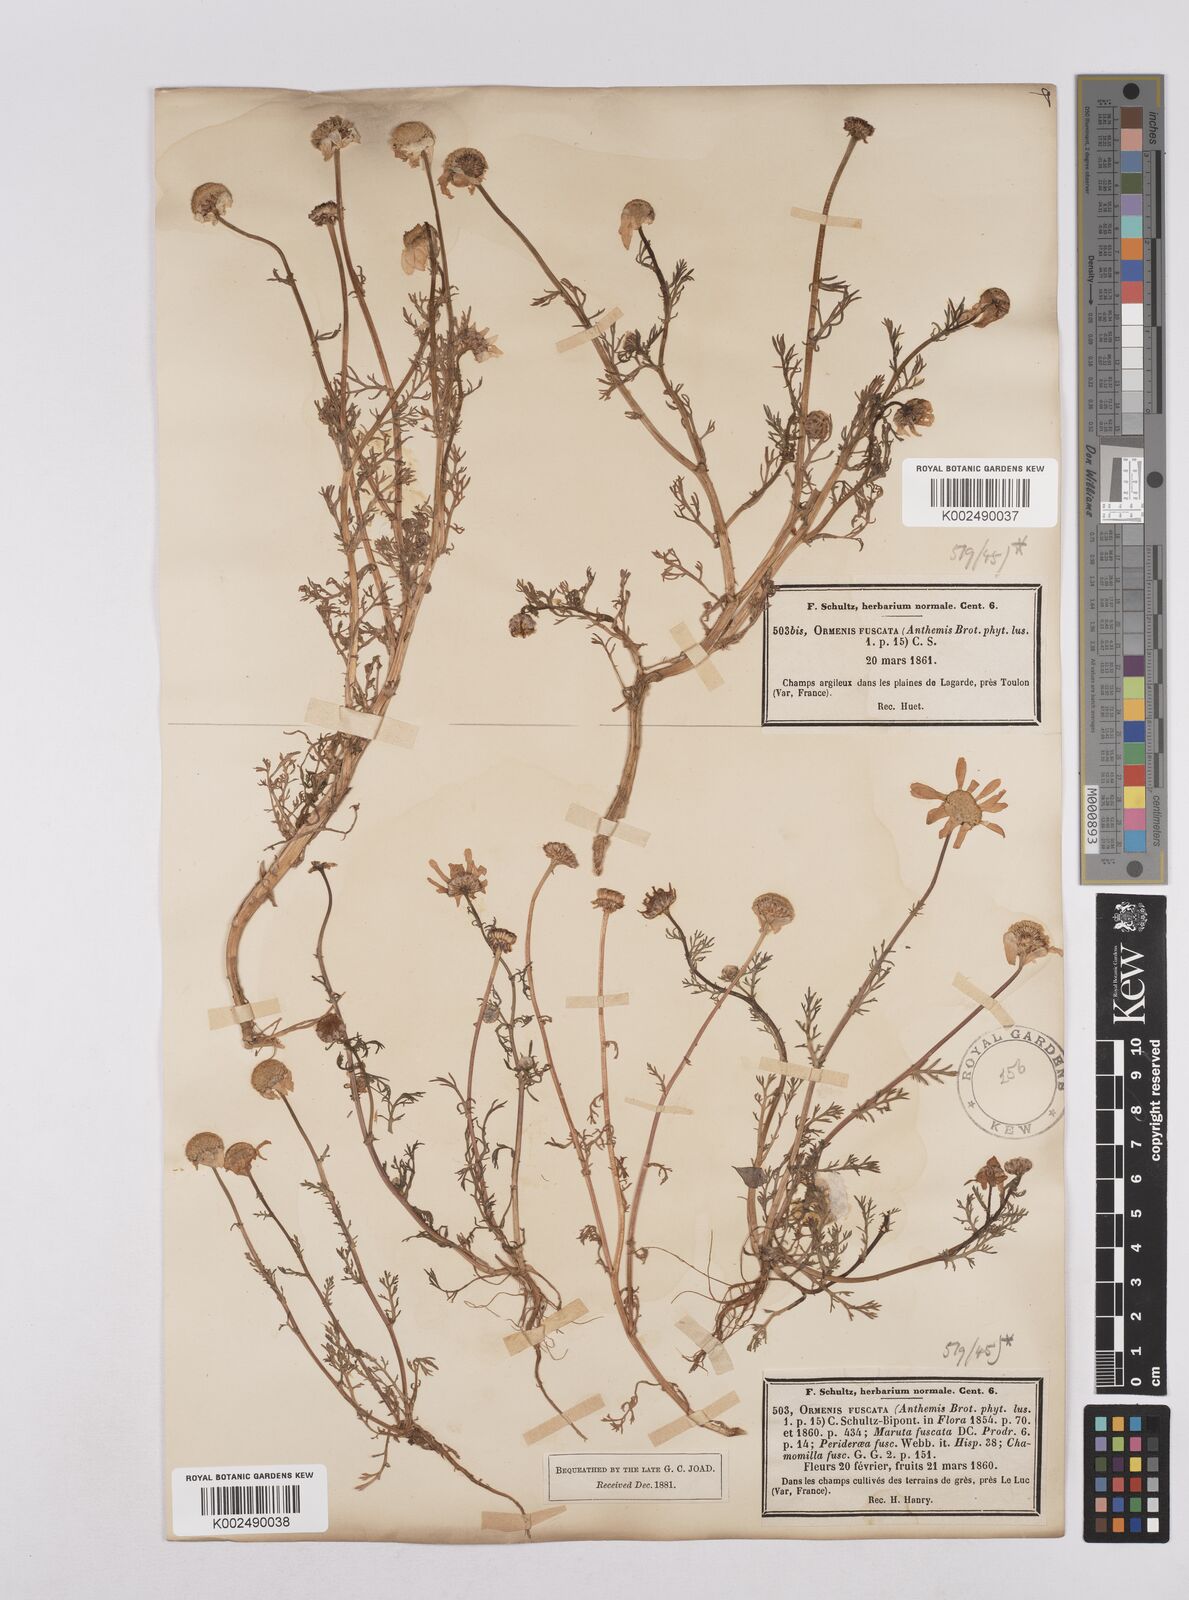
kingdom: Plantae
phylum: Tracheophyta
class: Magnoliopsida
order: Asterales
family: Asteraceae
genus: Chamaemelum
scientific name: Chamaemelum fuscatum
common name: Chamomile
